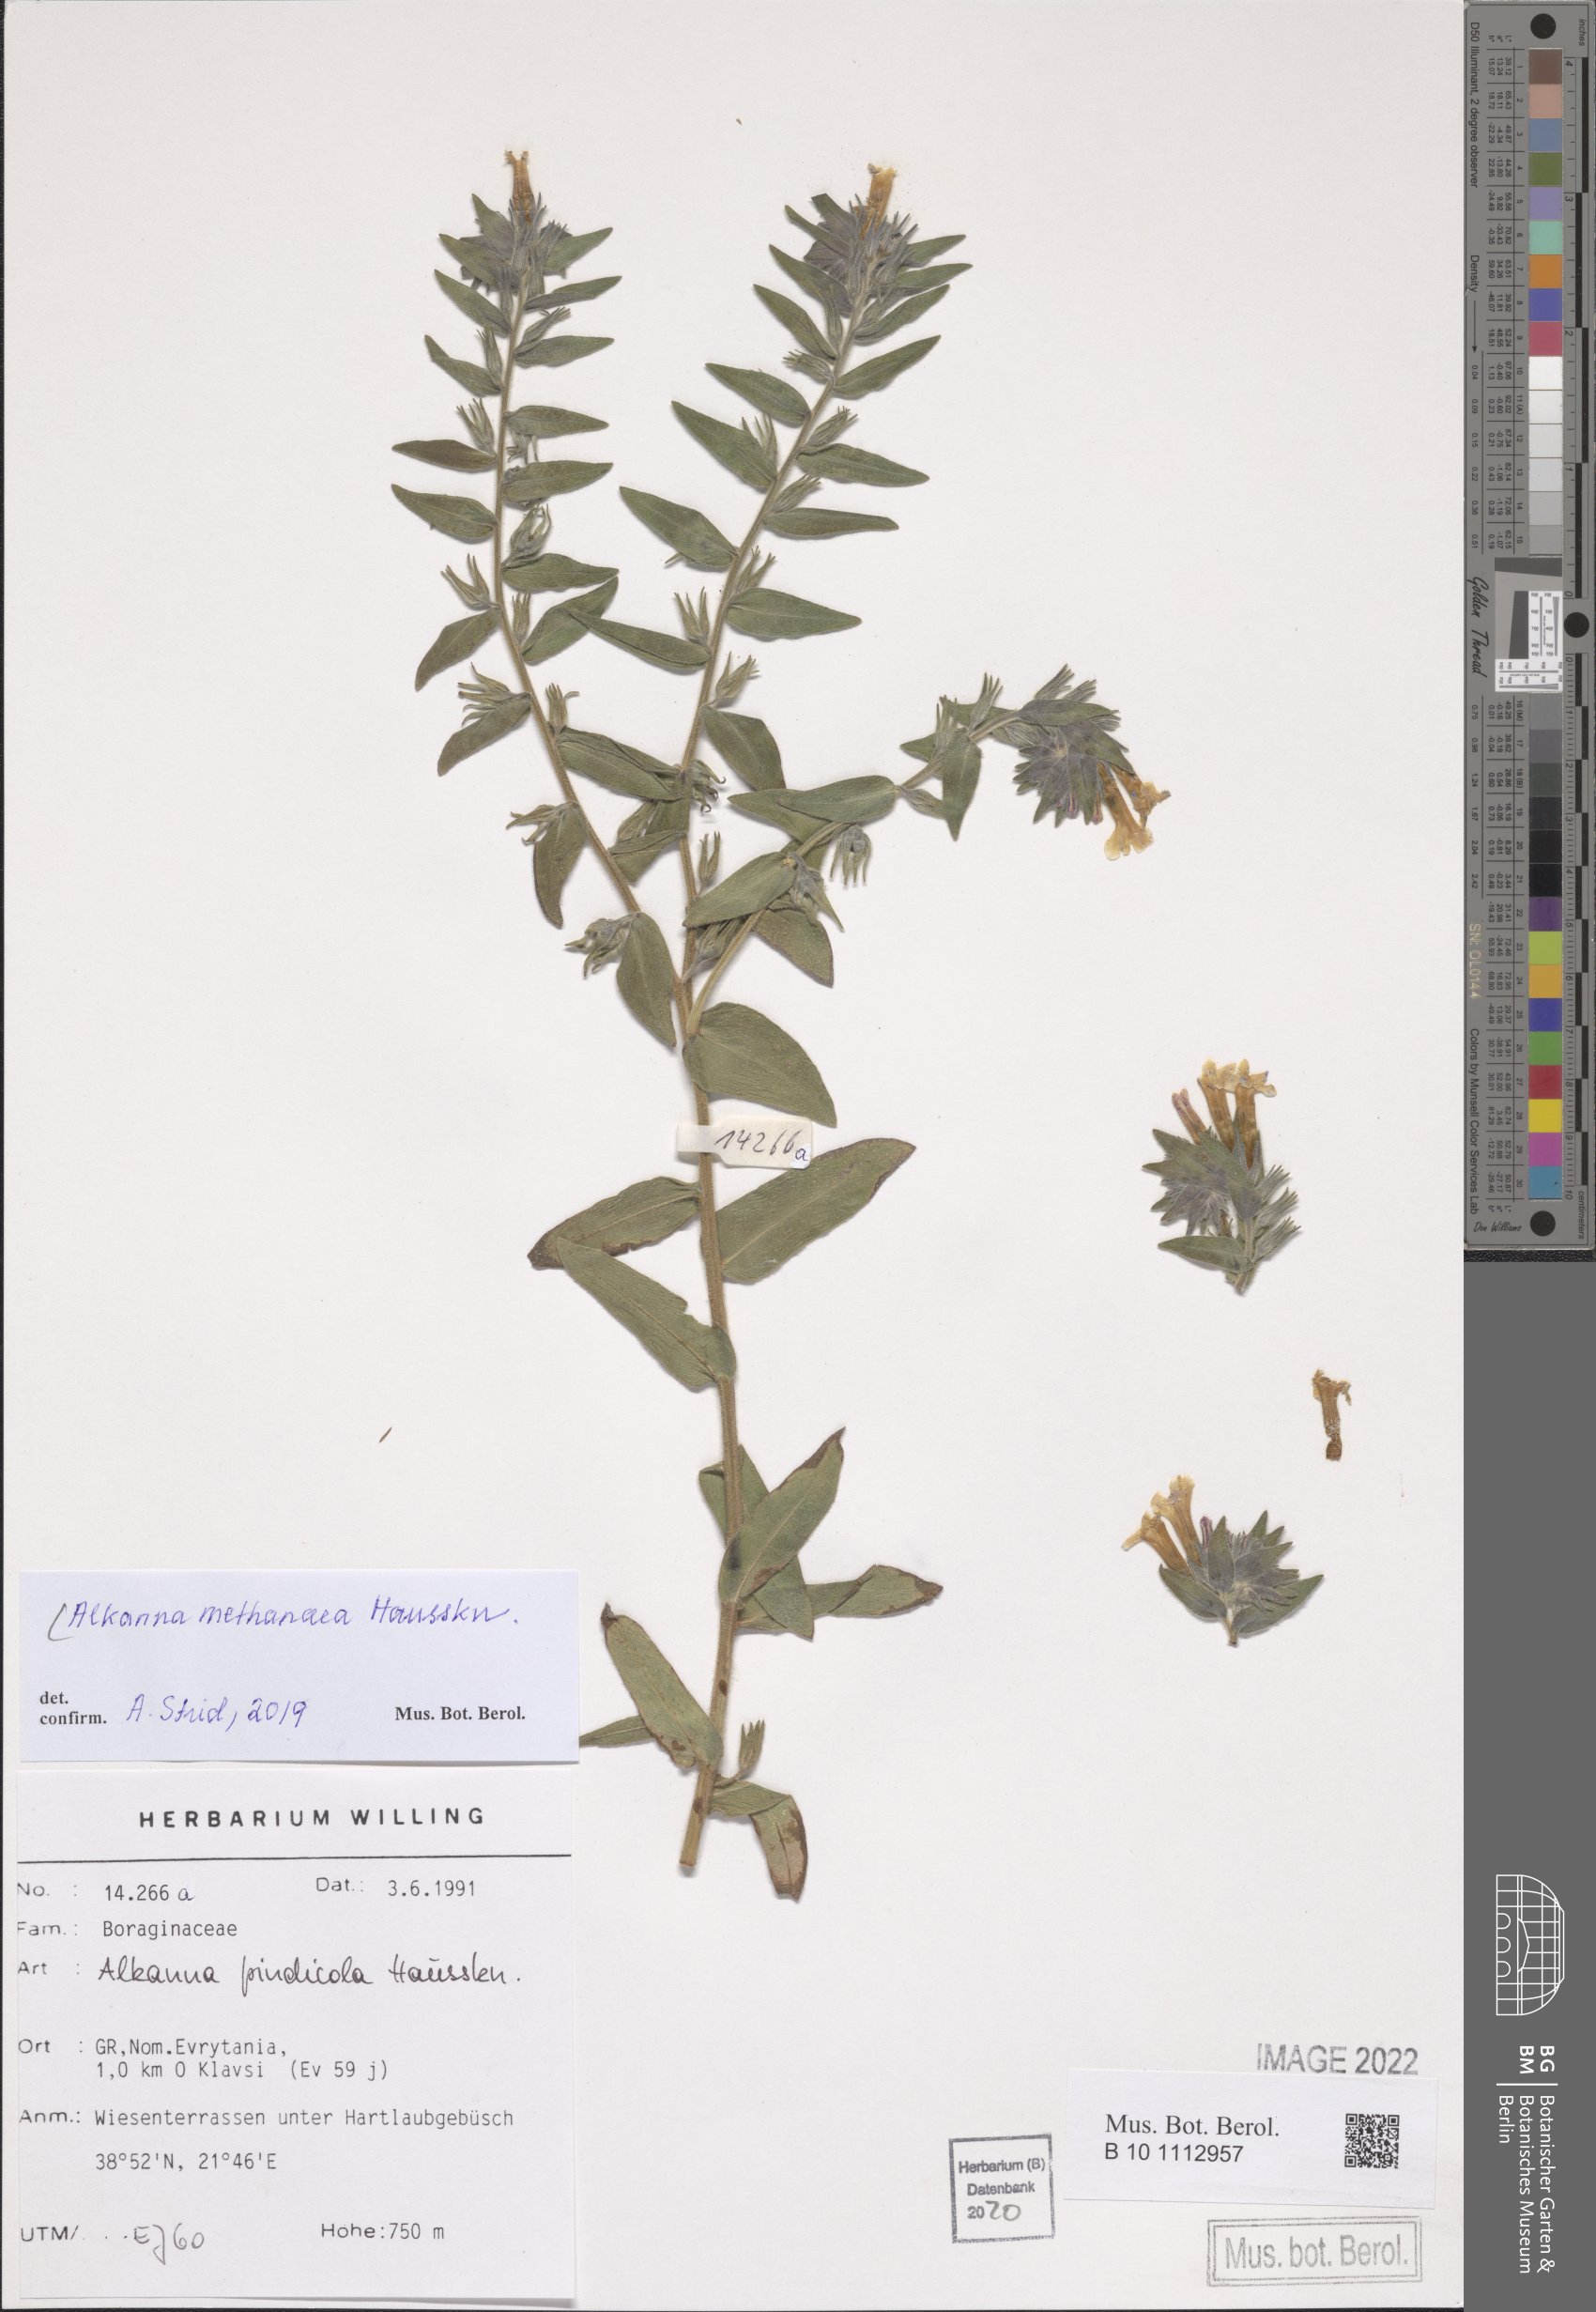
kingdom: Plantae
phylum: Tracheophyta
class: Magnoliopsida
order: Boraginales
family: Boraginaceae
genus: Alkanna
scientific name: Alkanna methanaea
